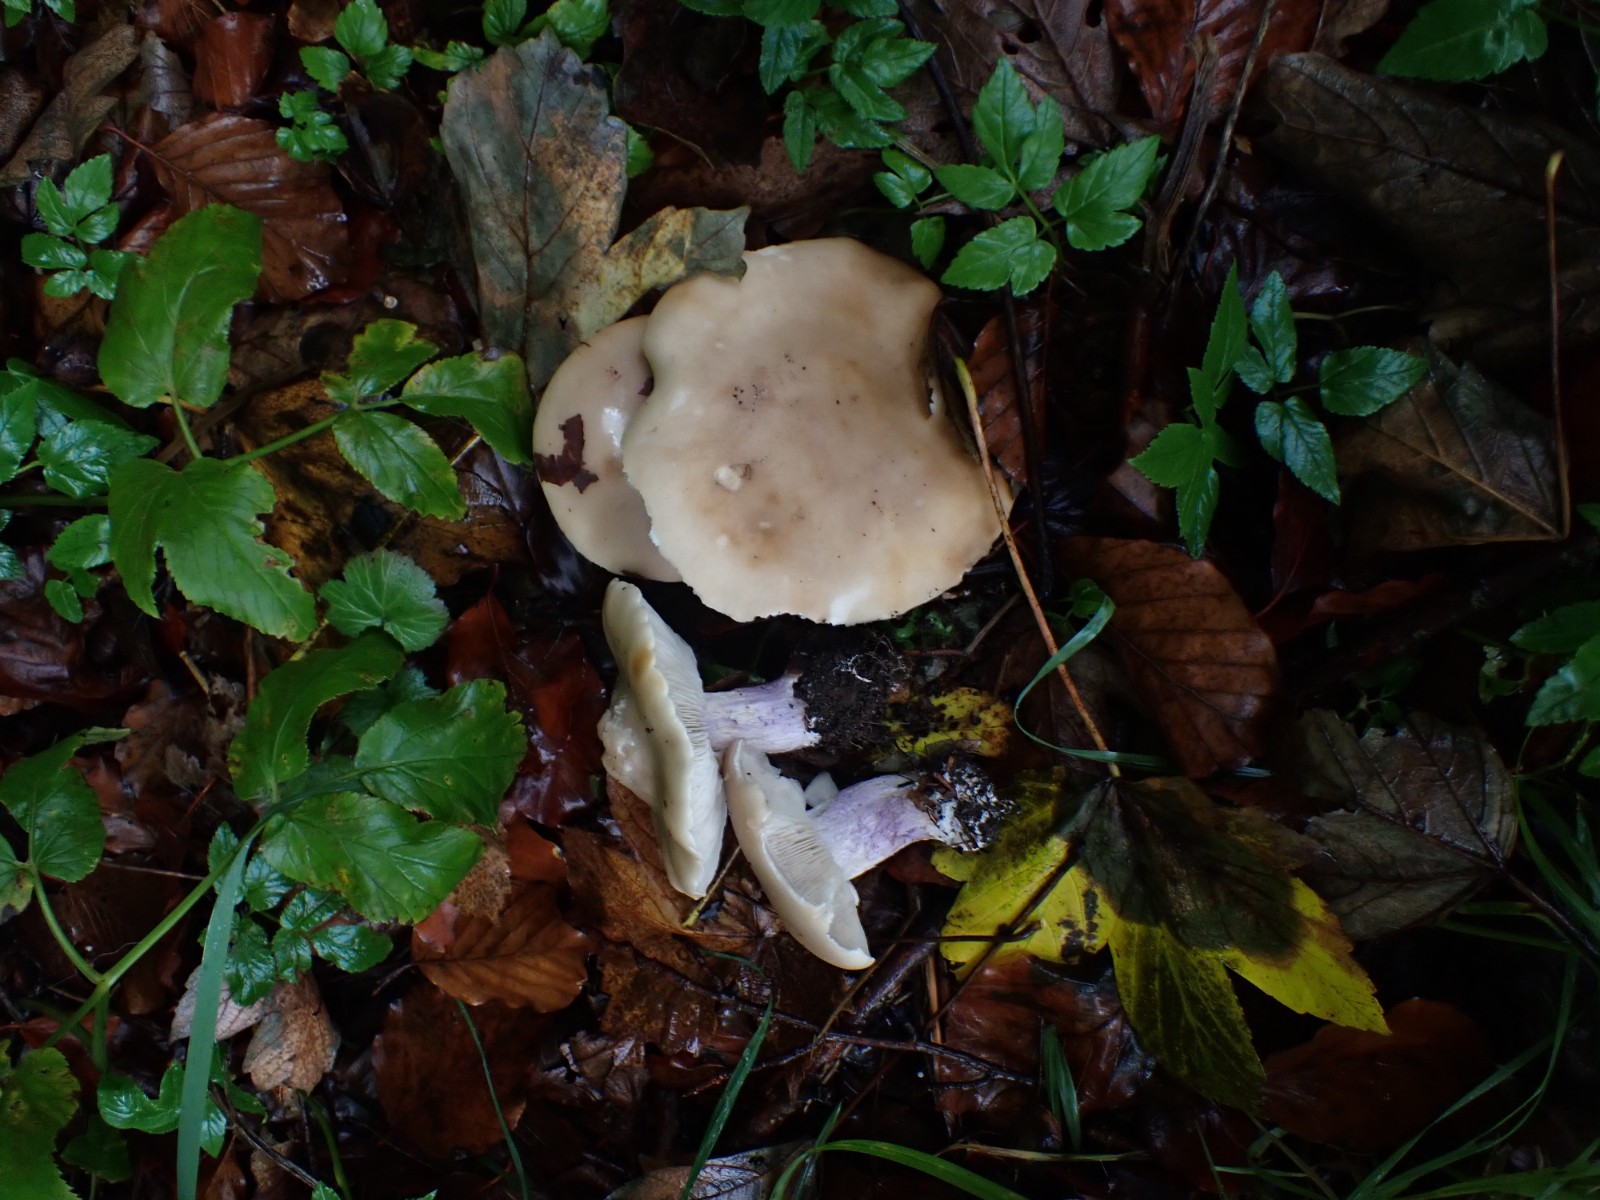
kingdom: Fungi
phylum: Basidiomycota
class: Agaricomycetes
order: Agaricales
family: Tricholomataceae
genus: Lepista
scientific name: Lepista personata
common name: bleg hekseringshat
